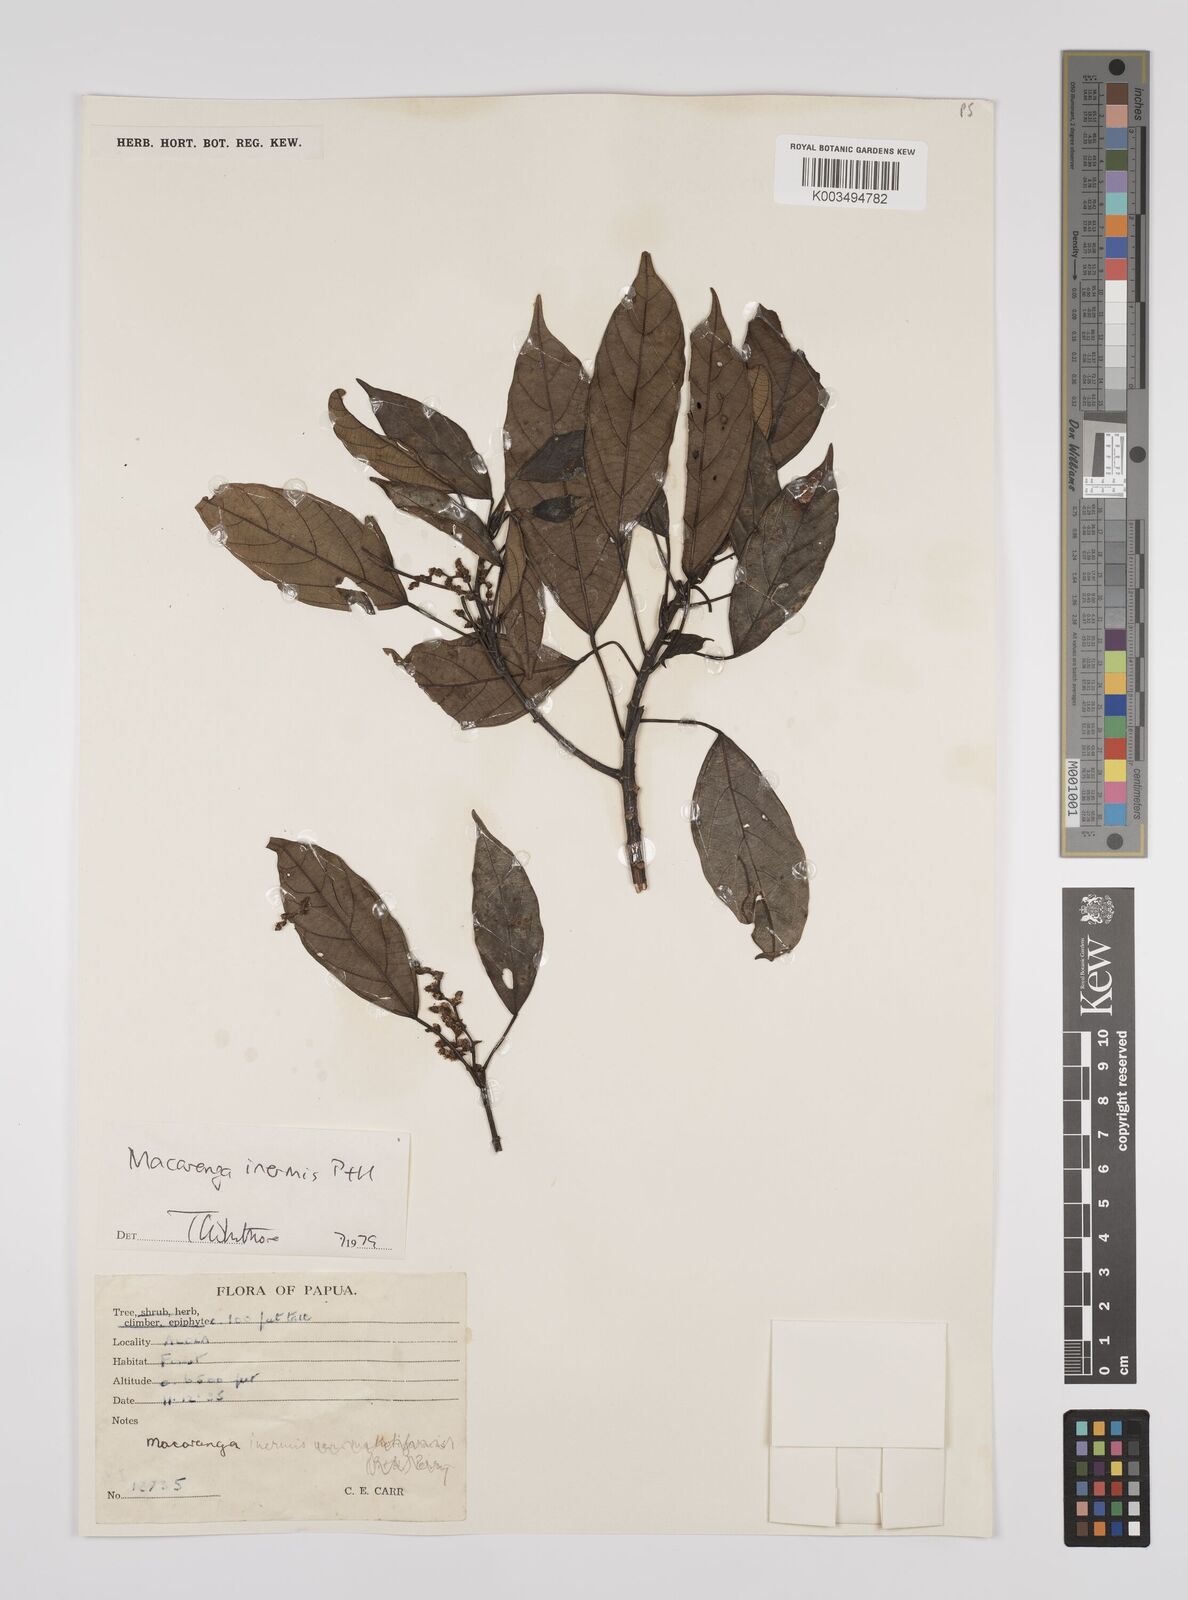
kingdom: Plantae
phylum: Tracheophyta
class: Magnoliopsida
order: Malpighiales
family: Euphorbiaceae
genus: Macaranga
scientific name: Macaranga inermis
